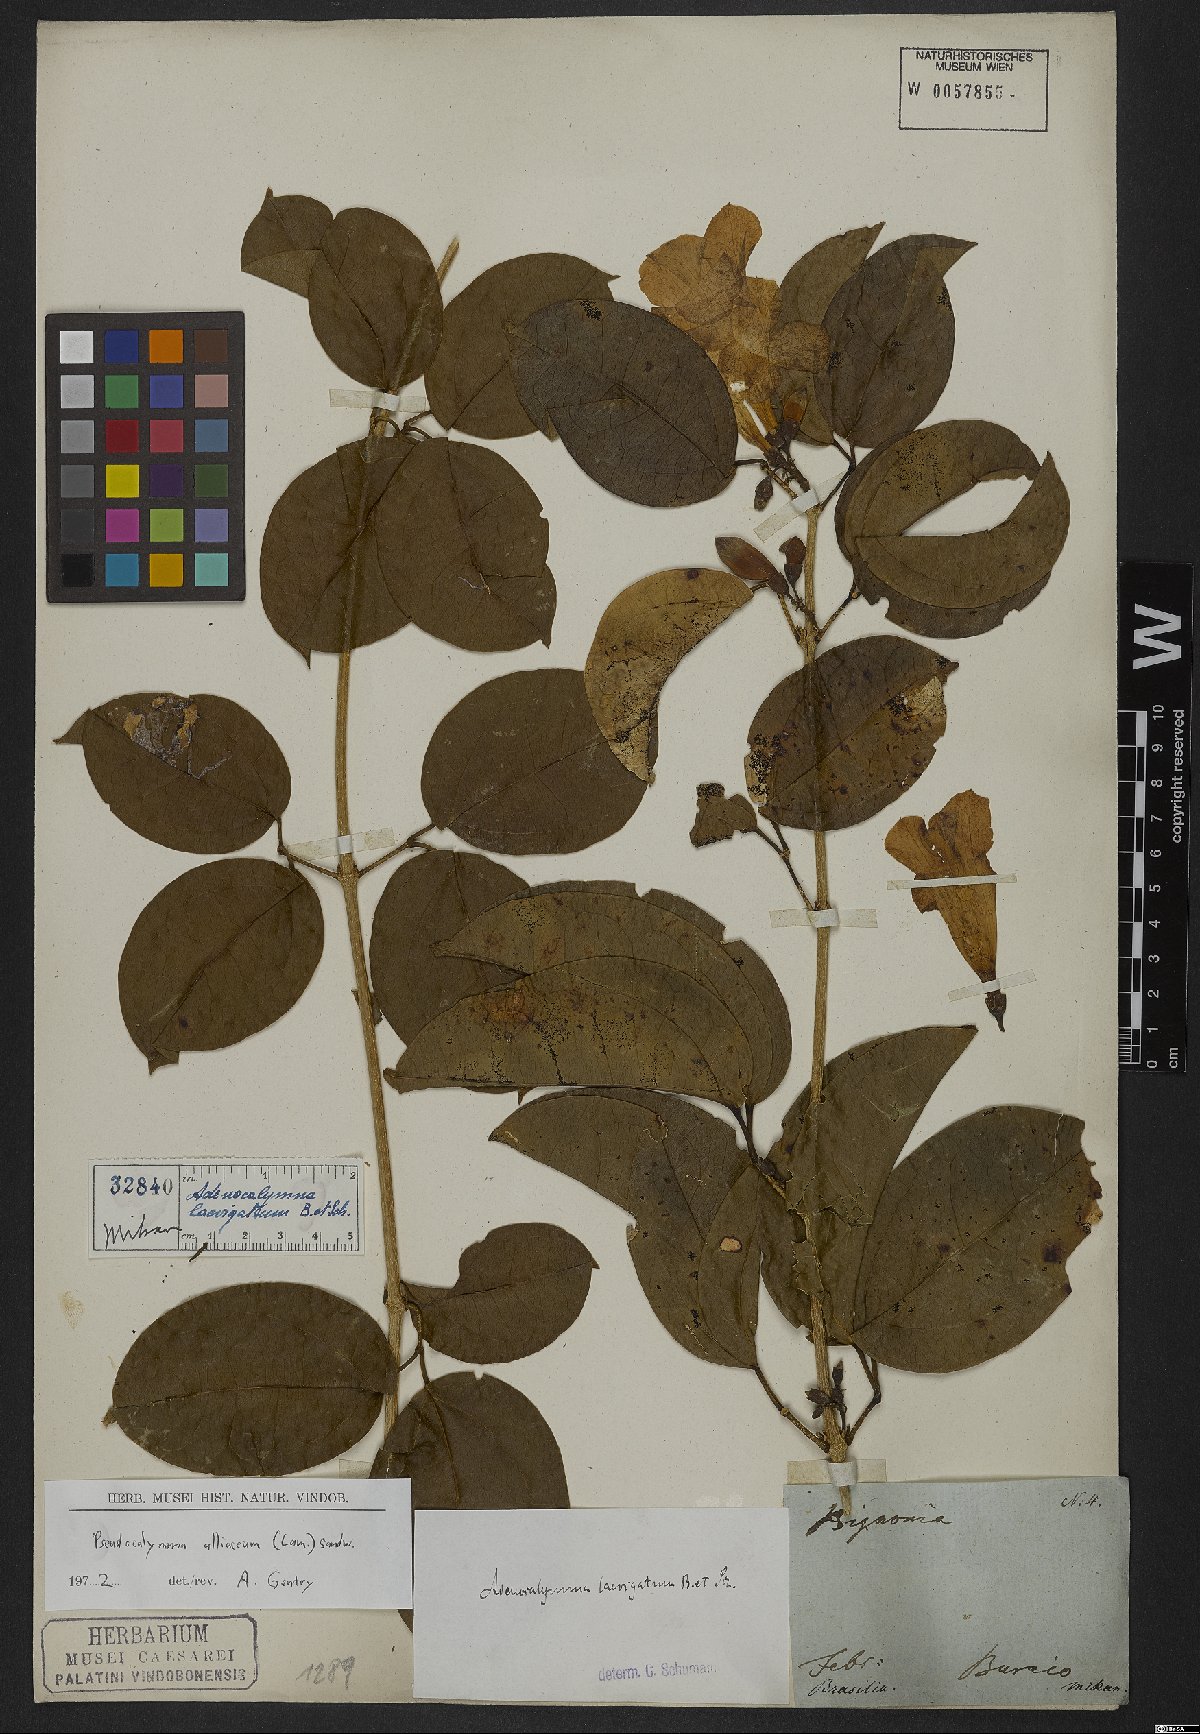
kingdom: Plantae
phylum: Tracheophyta
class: Magnoliopsida
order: Lamiales
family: Bignoniaceae
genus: Mansoa
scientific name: Mansoa alliacea
